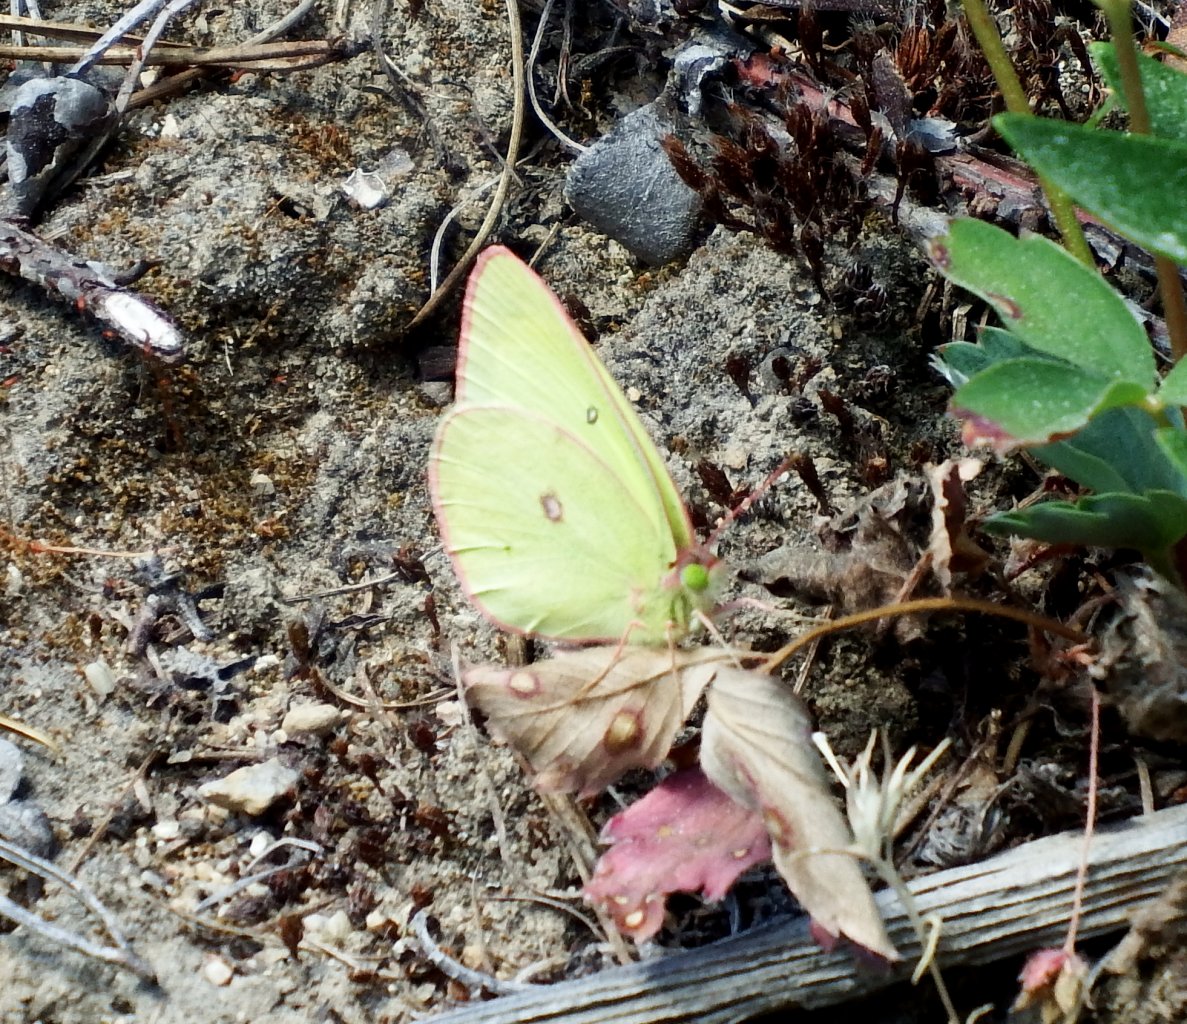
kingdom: Animalia
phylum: Arthropoda
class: Insecta
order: Lepidoptera
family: Pieridae
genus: Colias
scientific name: Colias interior
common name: Pink-edged Sulphur
